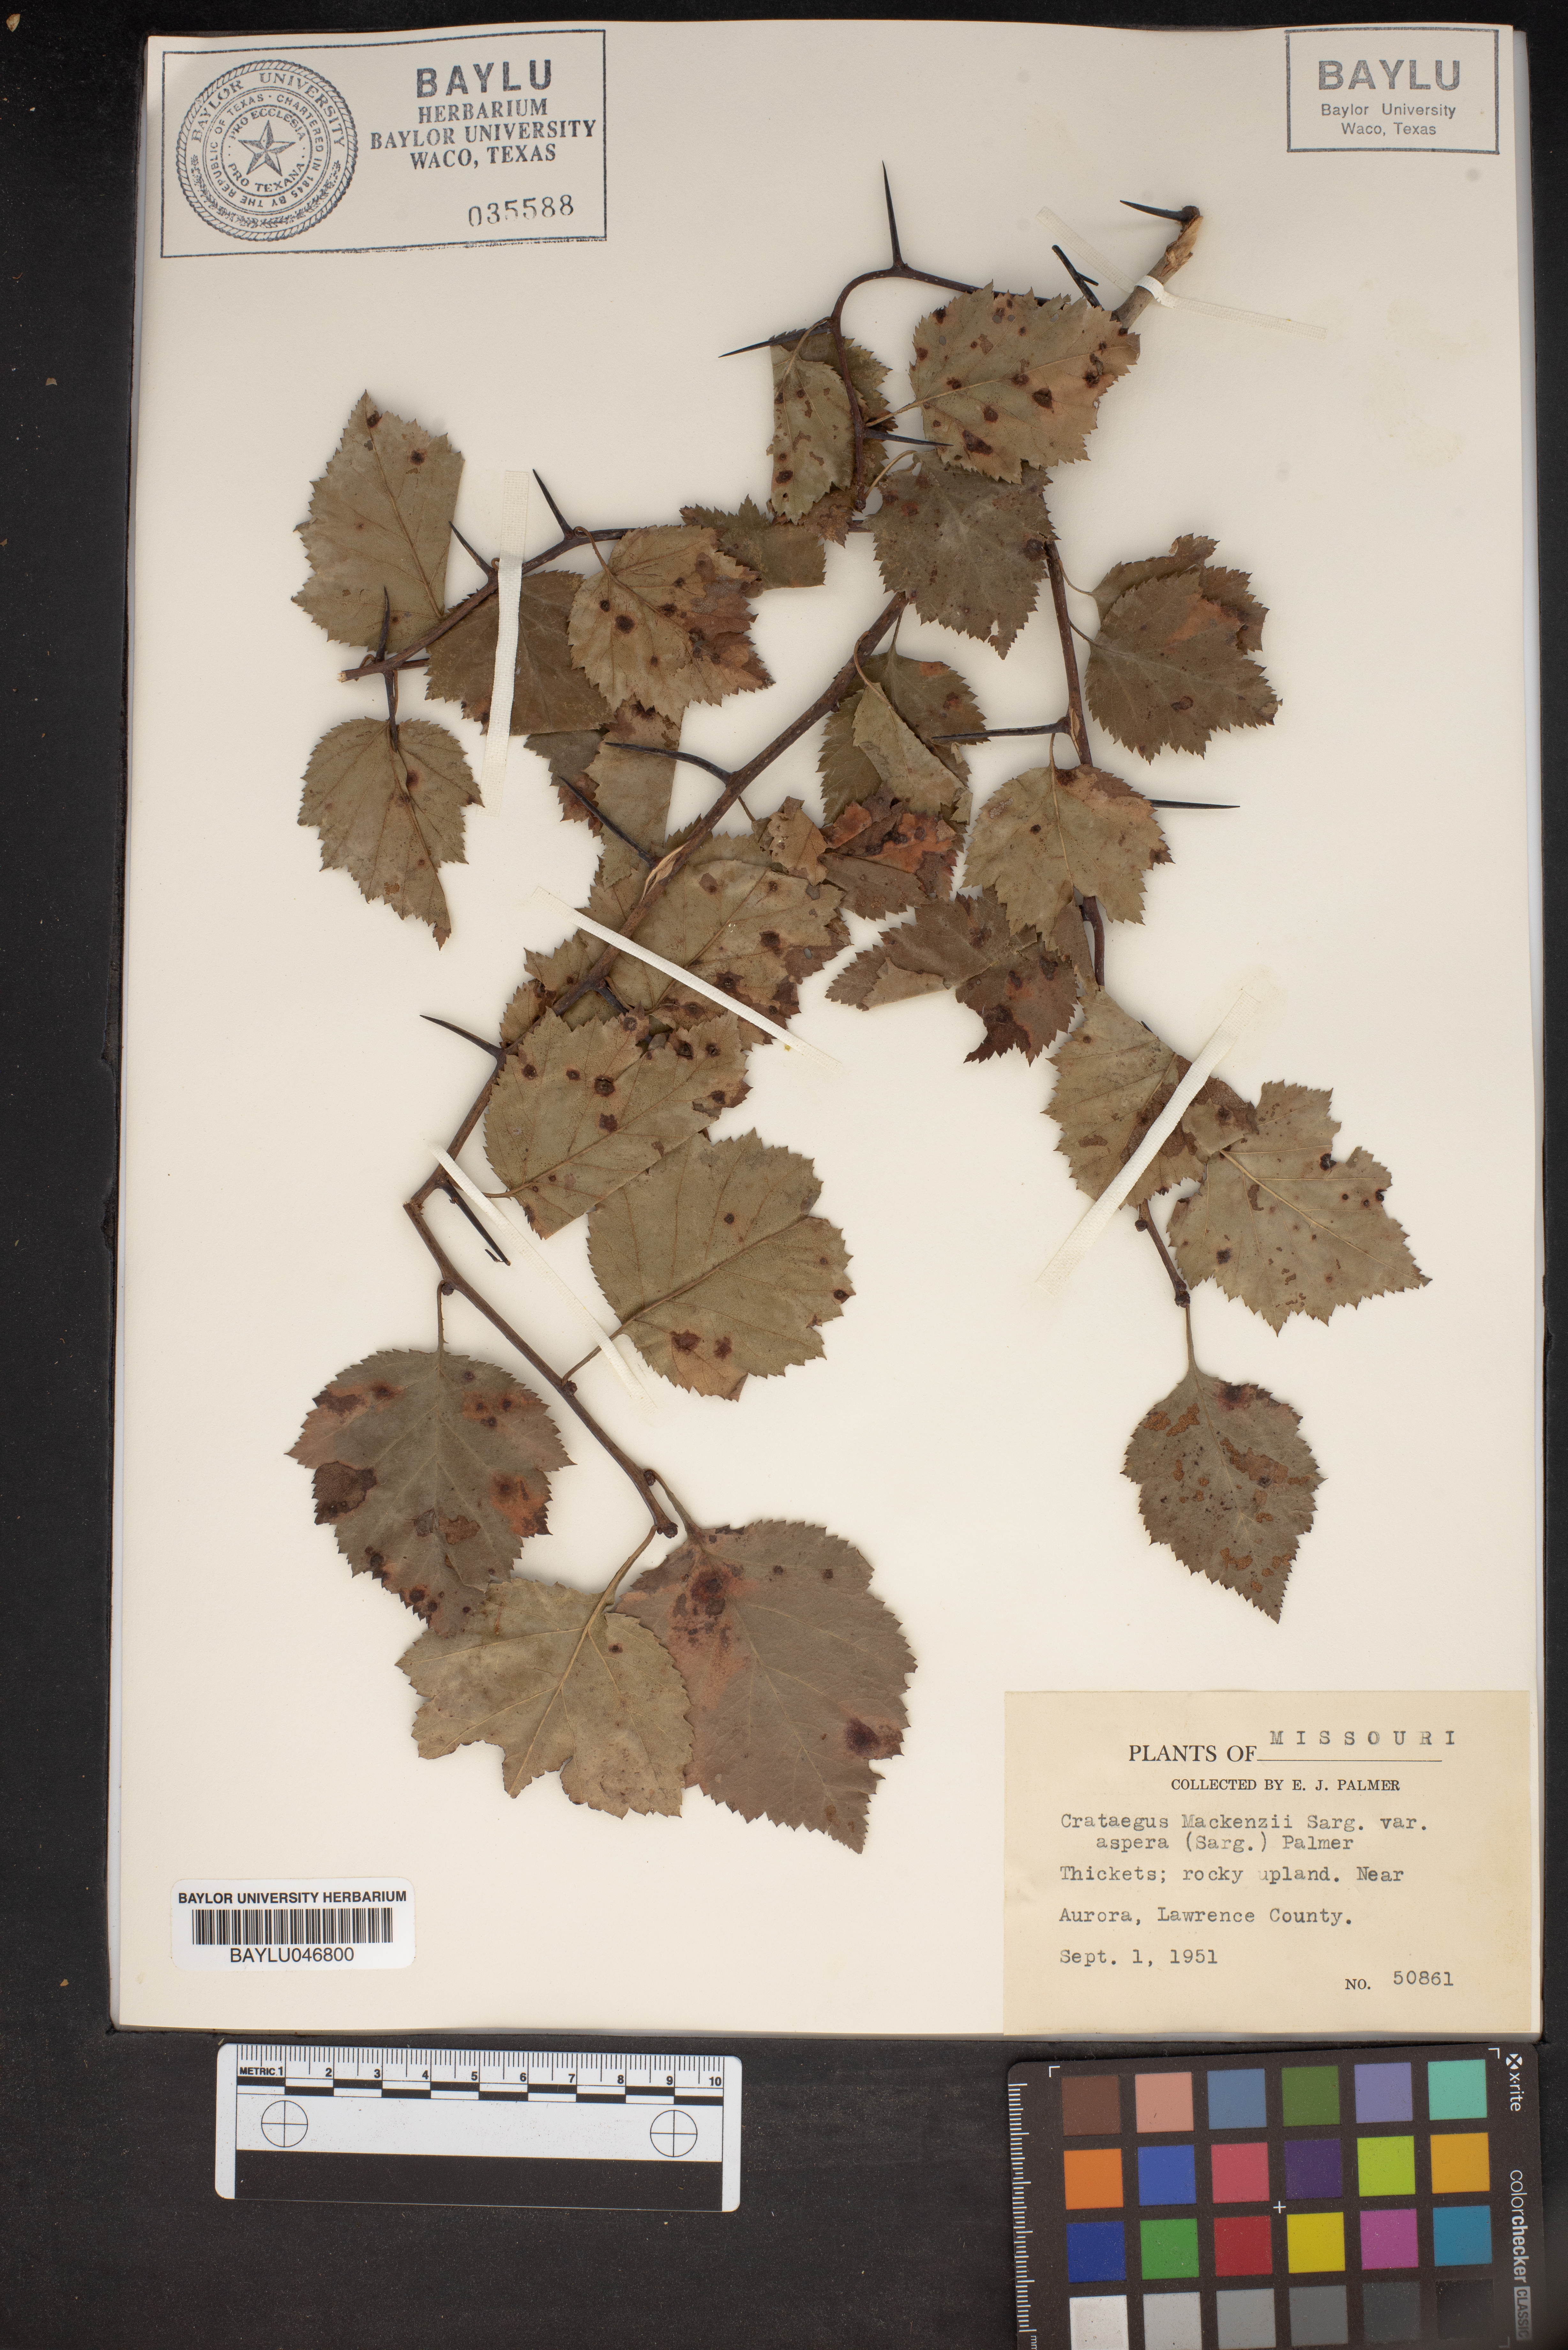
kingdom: Plantae
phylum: Tracheophyta
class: Magnoliopsida
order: Rosales
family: Rosaceae
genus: Crataegus
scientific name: Crataegus pruinosa
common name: Waxy-fruit hawthorn
